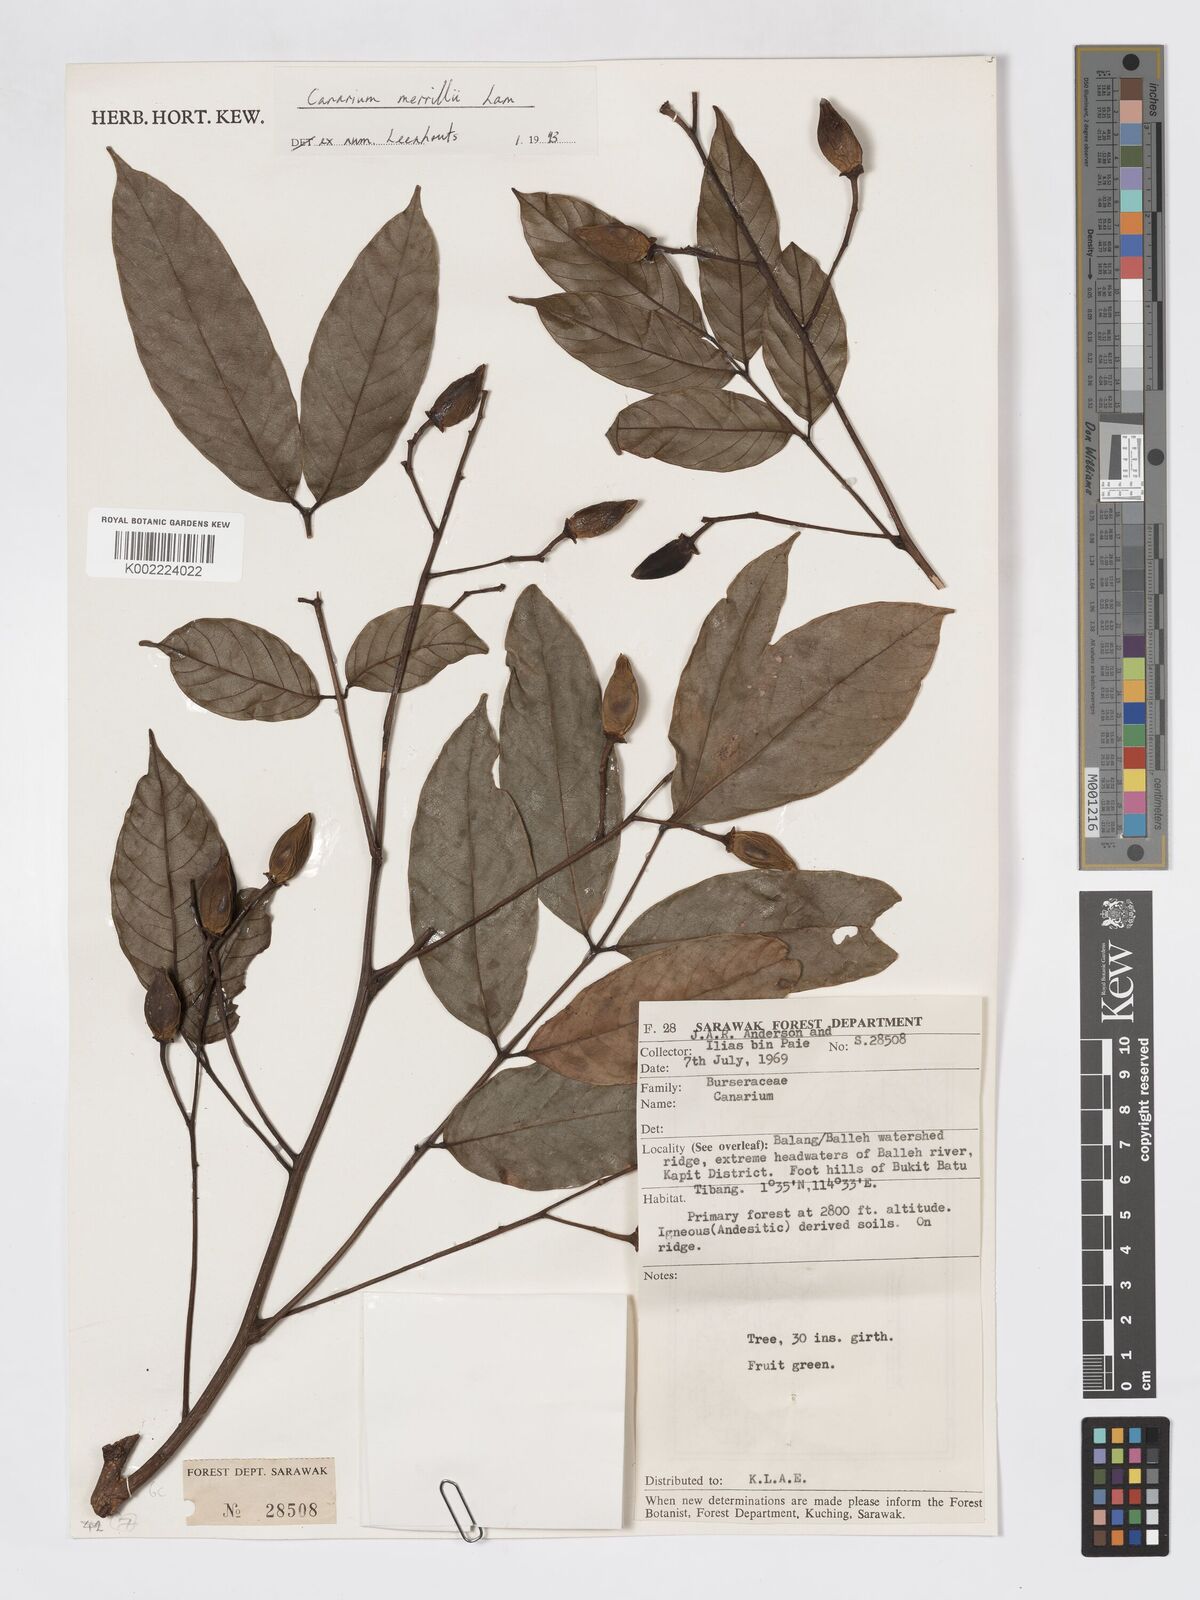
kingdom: Plantae
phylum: Tracheophyta
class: Magnoliopsida
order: Sapindales
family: Burseraceae
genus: Canarium
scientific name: Canarium merrillii
